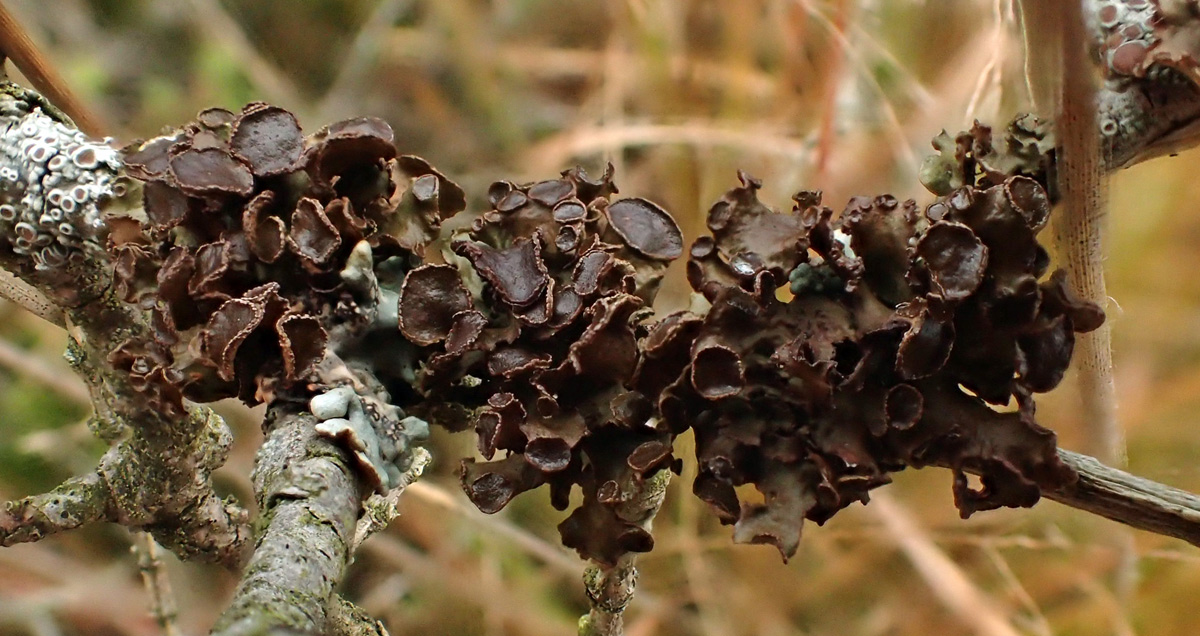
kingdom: Fungi
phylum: Ascomycota
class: Lecanoromycetes
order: Lecanorales
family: Parmeliaceae
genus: Cetraria
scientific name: Cetraria sepincola
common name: tue-kruslav
